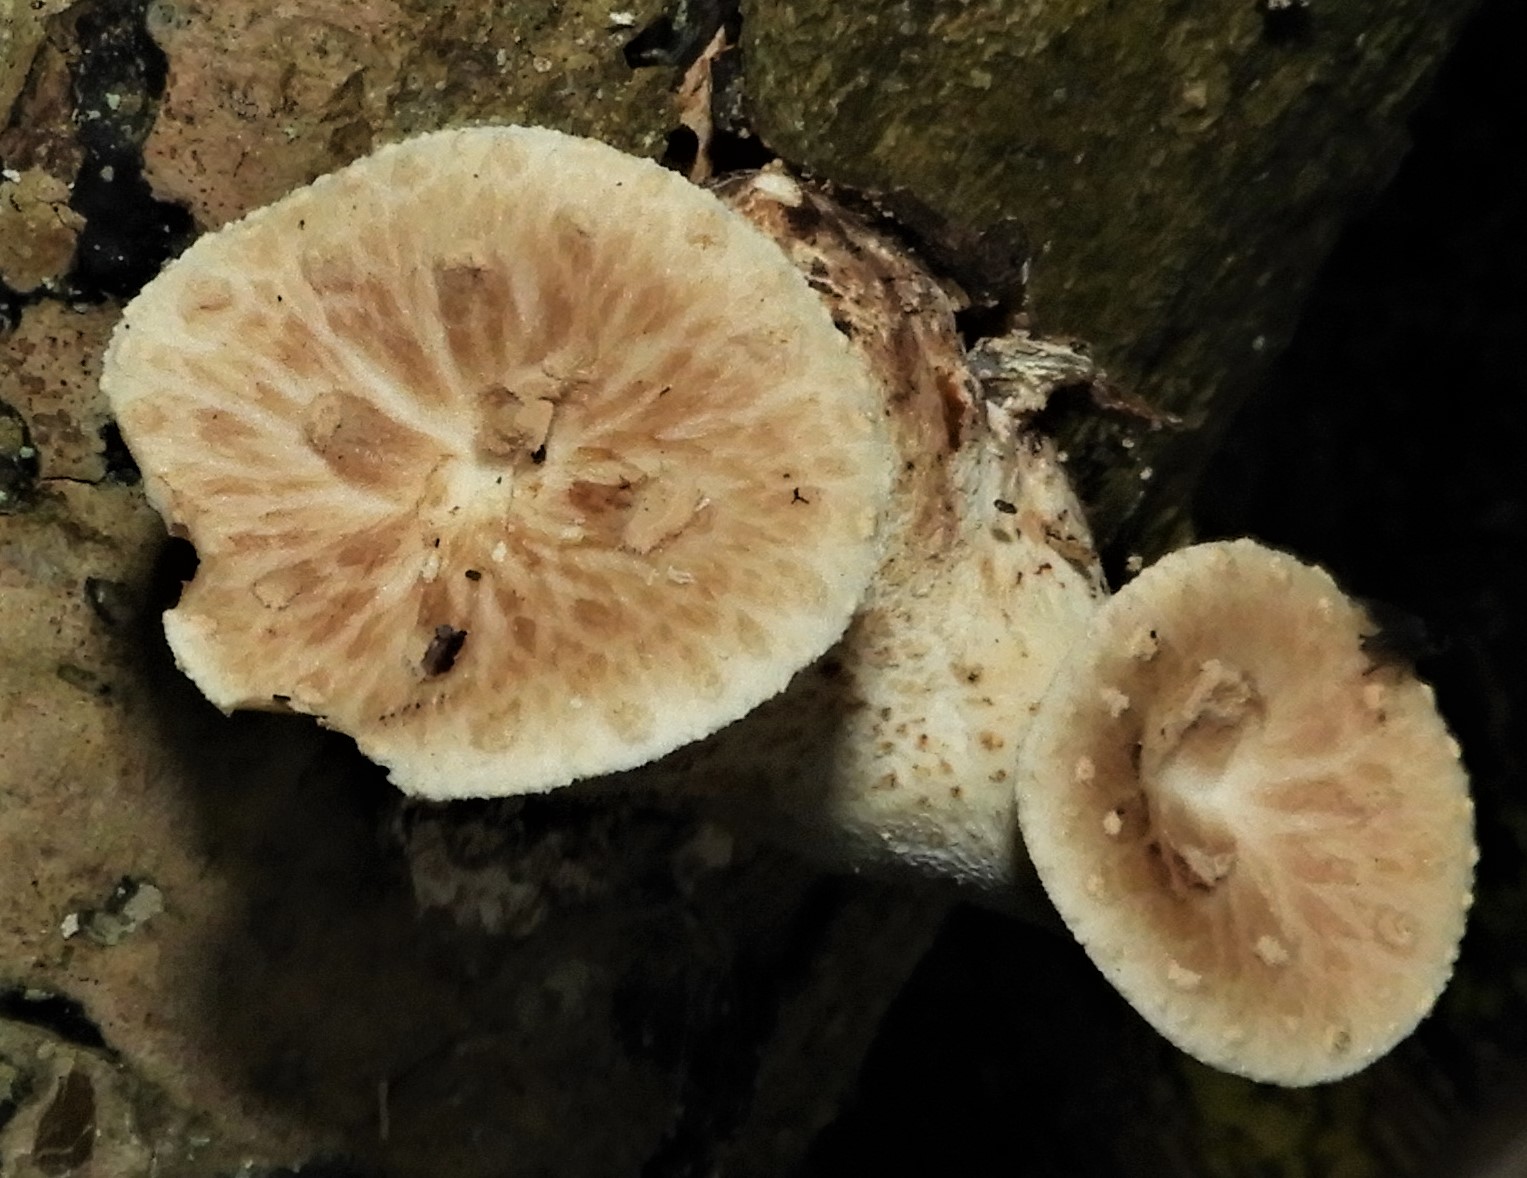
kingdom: Fungi
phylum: Basidiomycota
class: Agaricomycetes
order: Polyporales
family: Polyporaceae
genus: Cerioporus
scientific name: Cerioporus varius
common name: foranderlig stilkporesvamp
